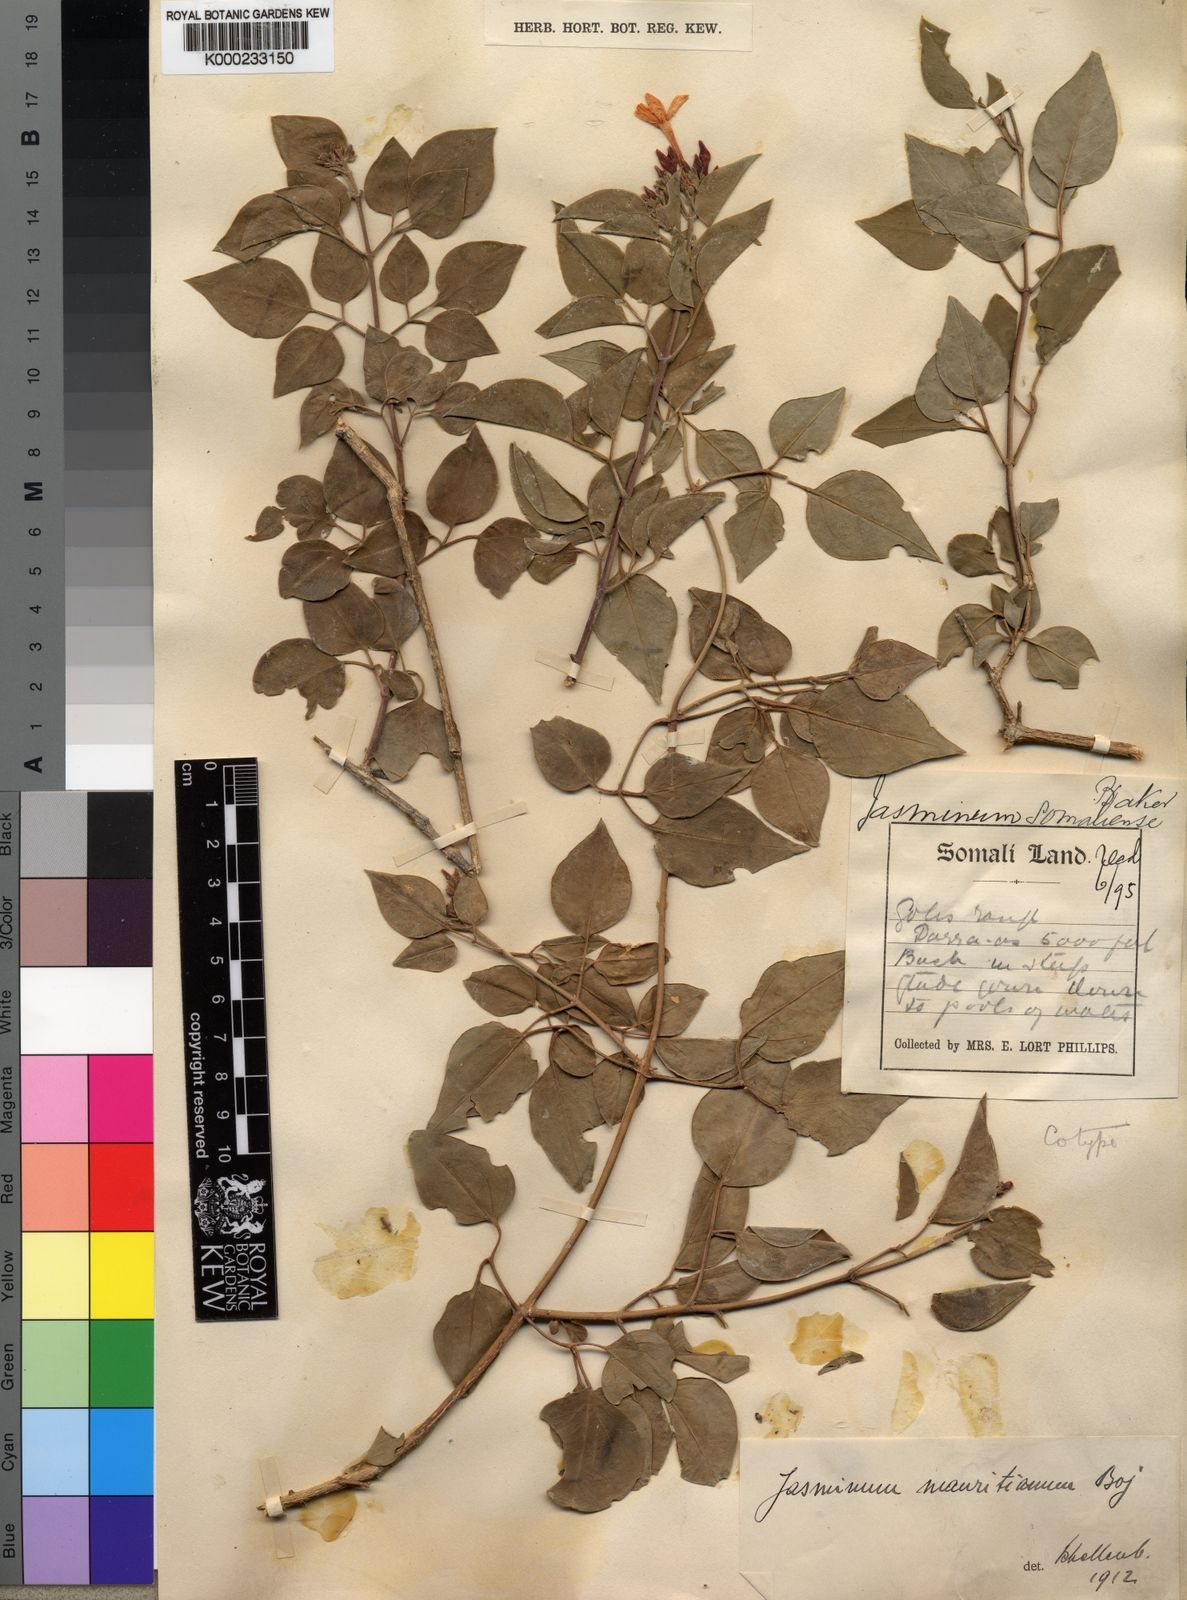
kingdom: Plantae
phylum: Tracheophyta
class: Magnoliopsida
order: Lamiales
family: Oleaceae
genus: Jasminum
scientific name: Jasminum fluminense
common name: Brazilian jasmine
